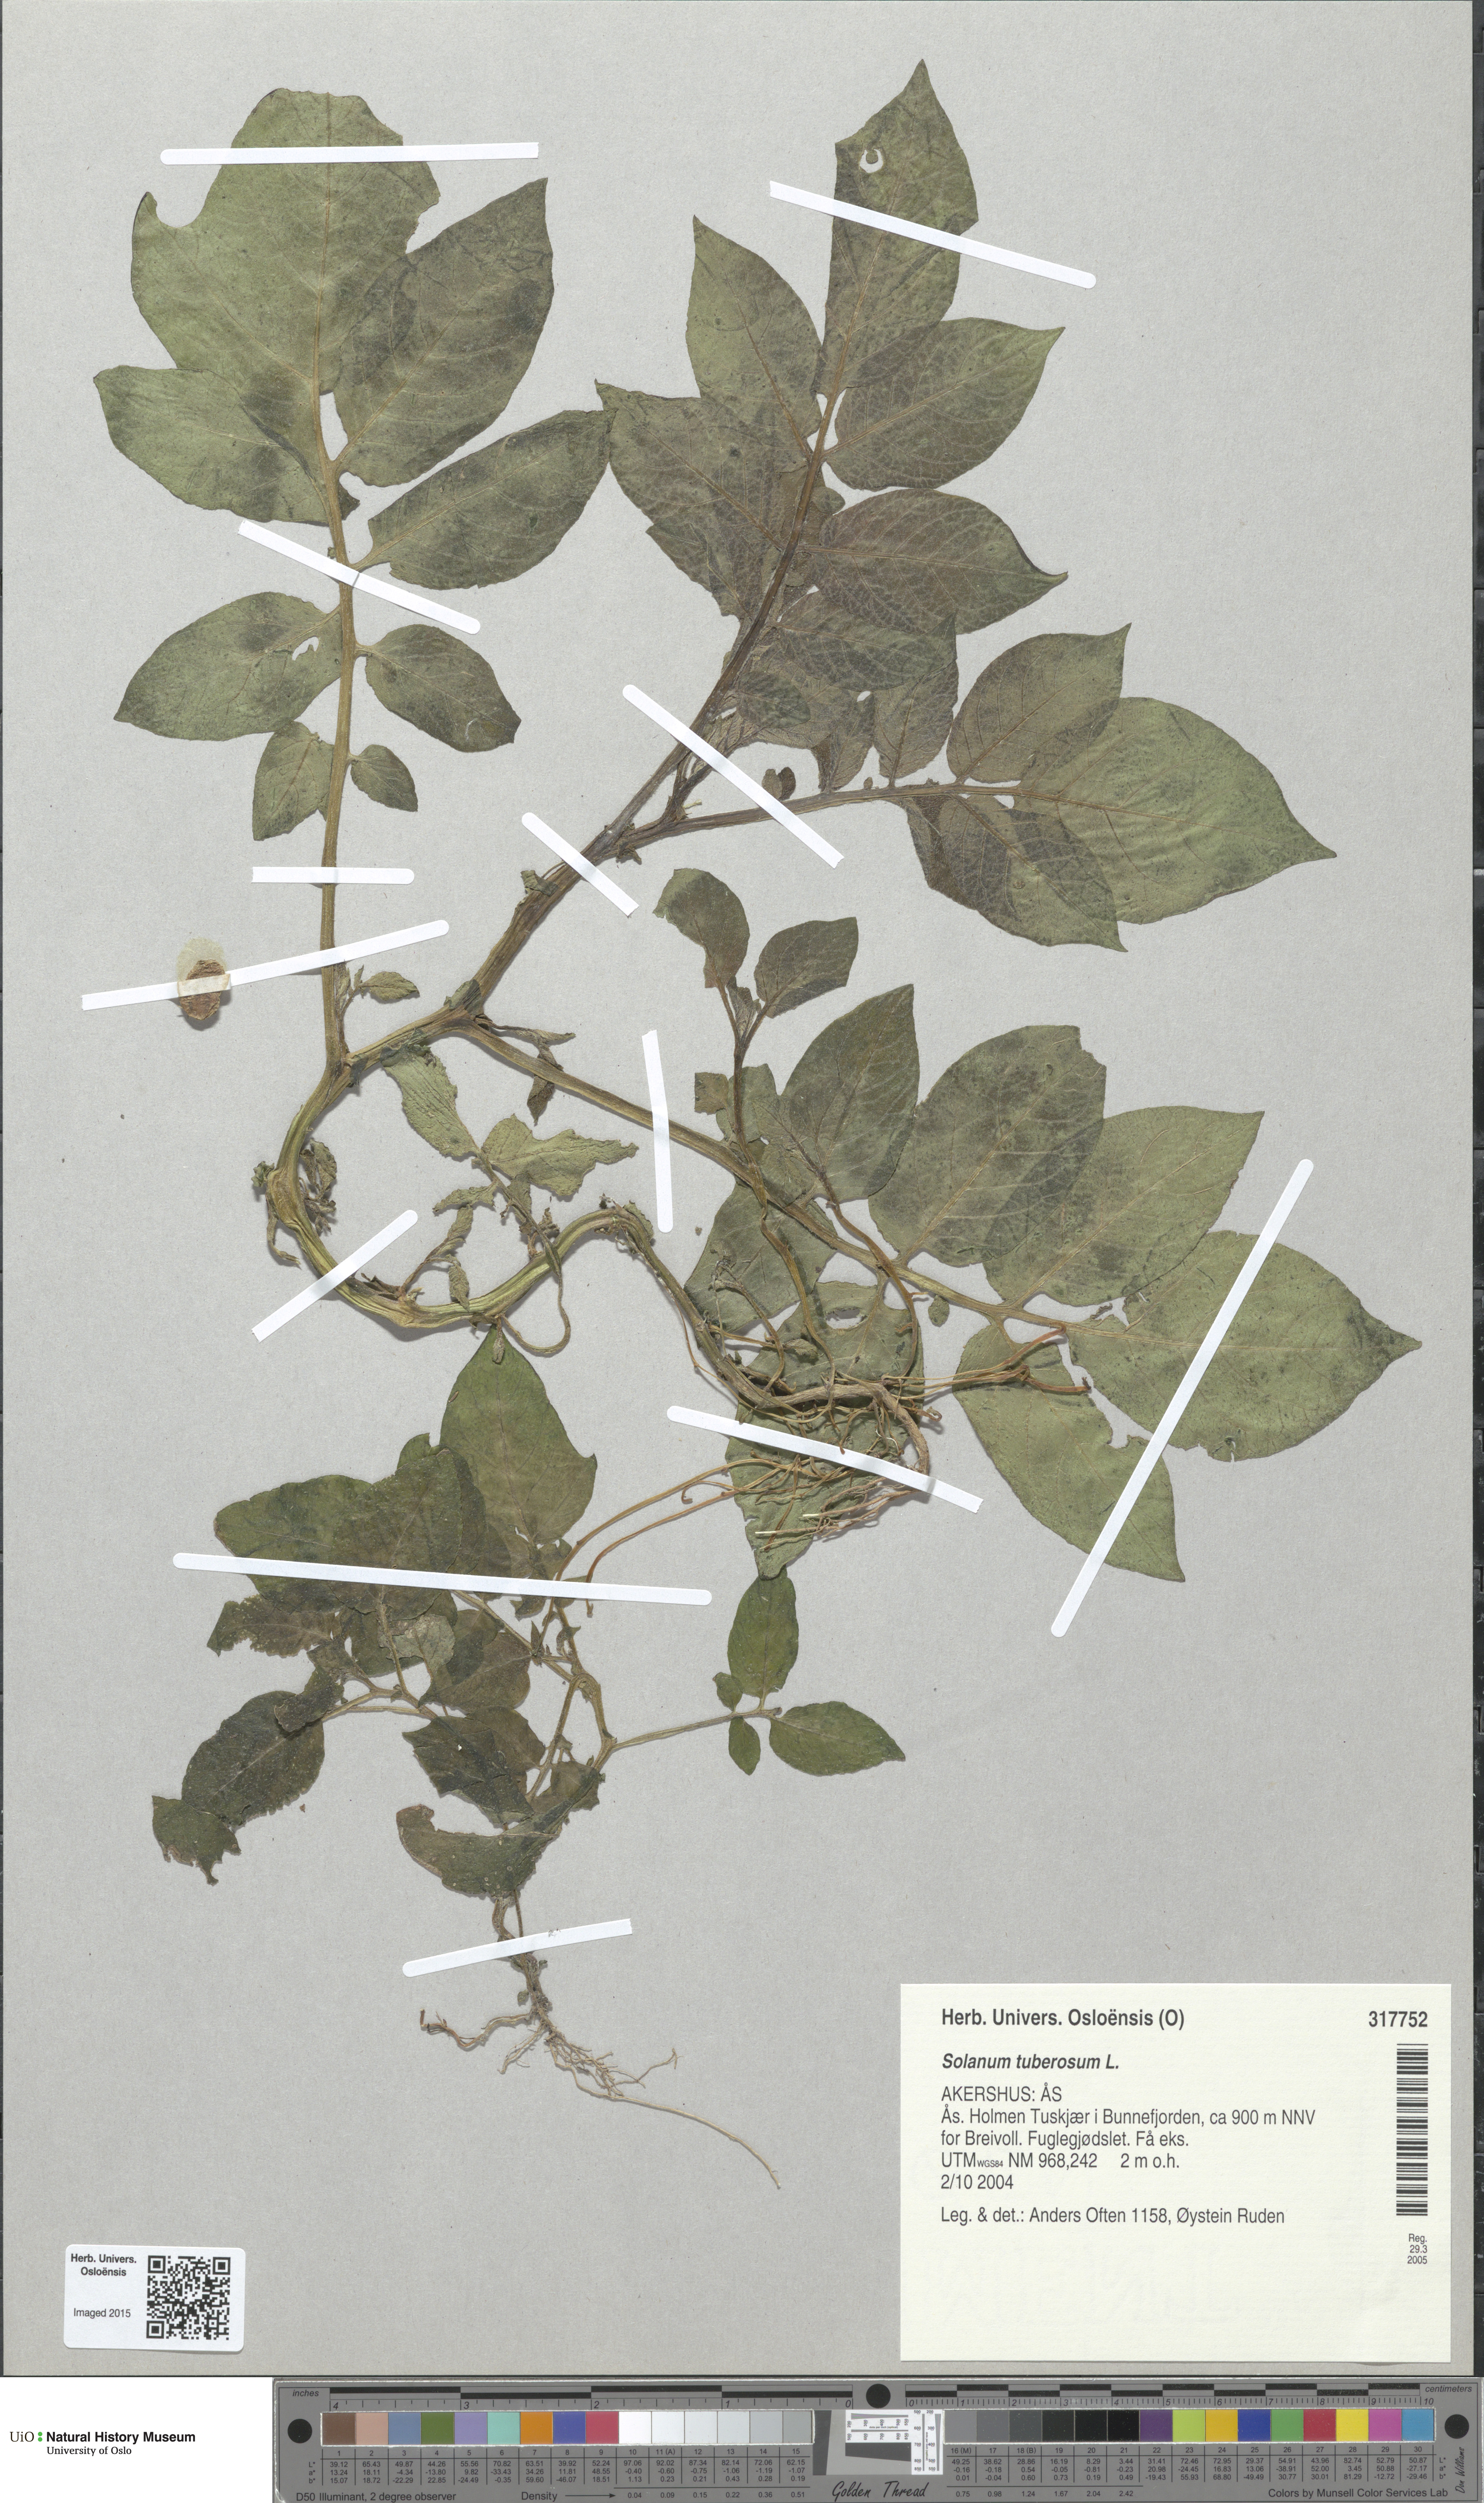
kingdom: Plantae
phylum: Tracheophyta
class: Magnoliopsida
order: Solanales
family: Solanaceae
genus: Solanum
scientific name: Solanum tuberosum
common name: Potato
